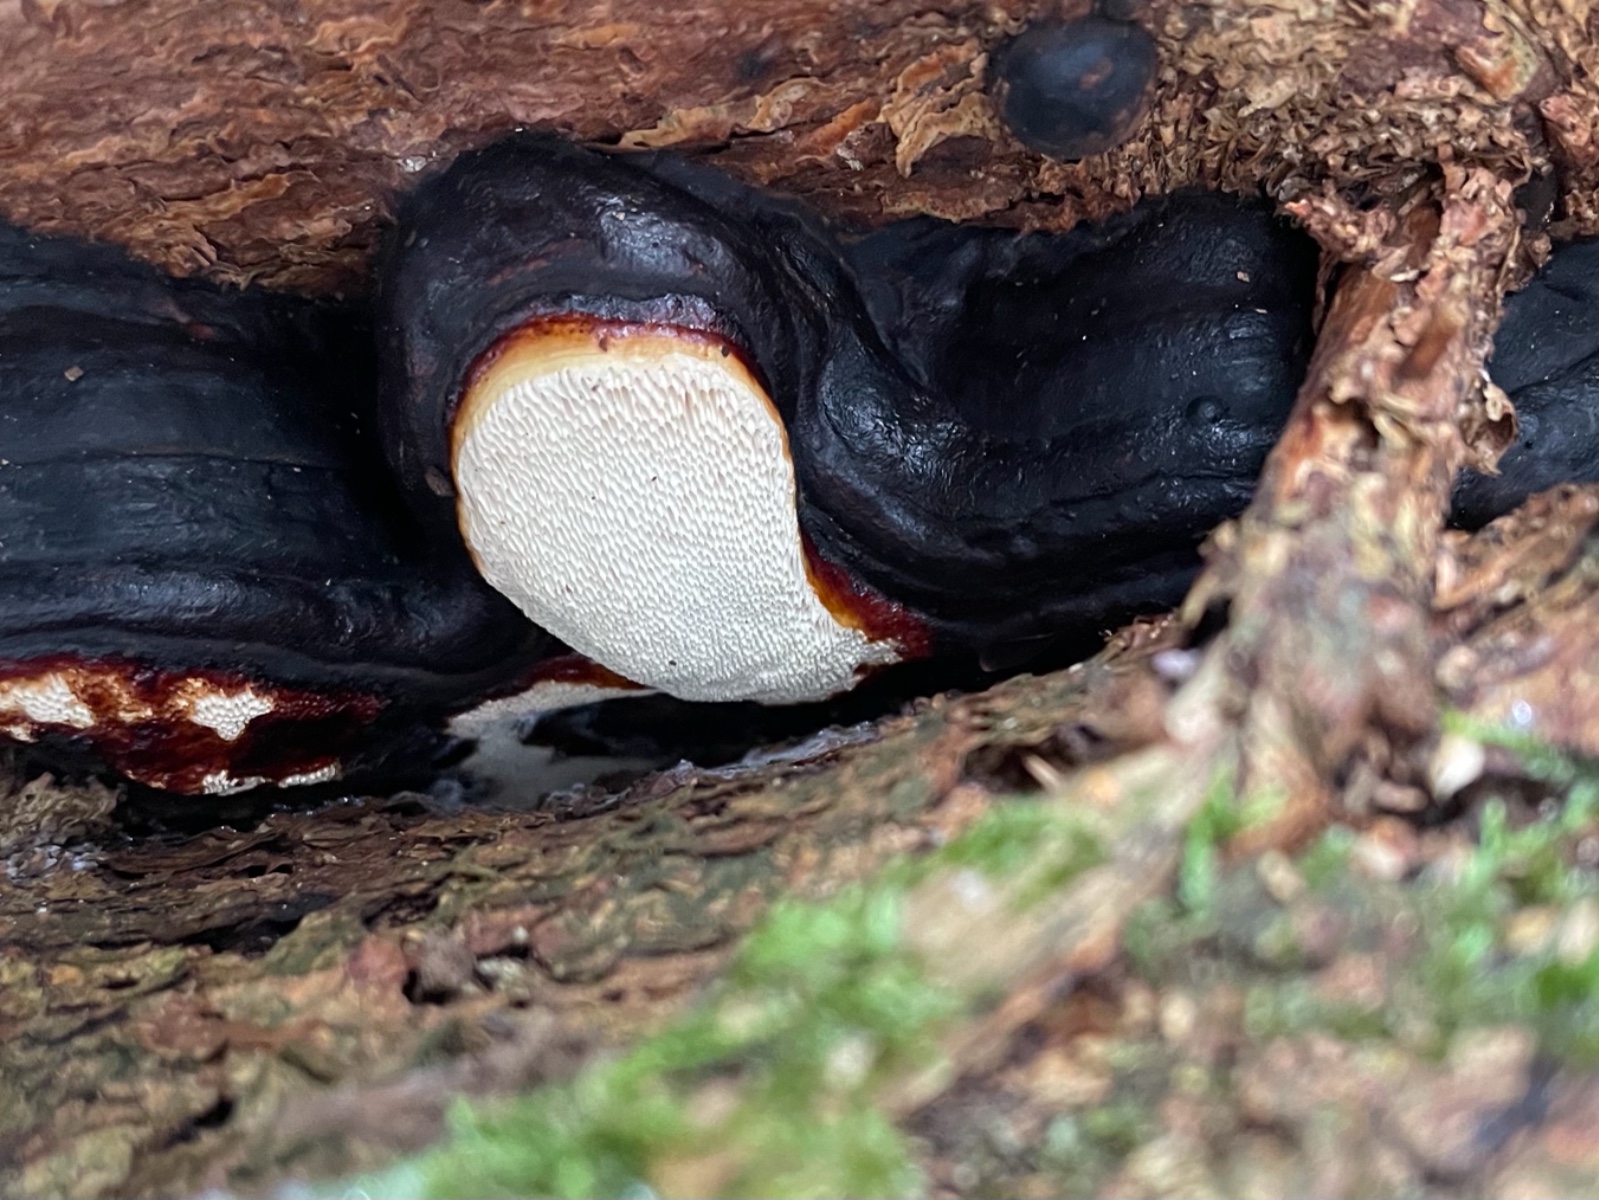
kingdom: Fungi
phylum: Basidiomycota
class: Agaricomycetes
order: Polyporales
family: Fomitopsidaceae
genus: Fomitopsis
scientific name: Fomitopsis pinicola
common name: randbæltet hovporesvamp
